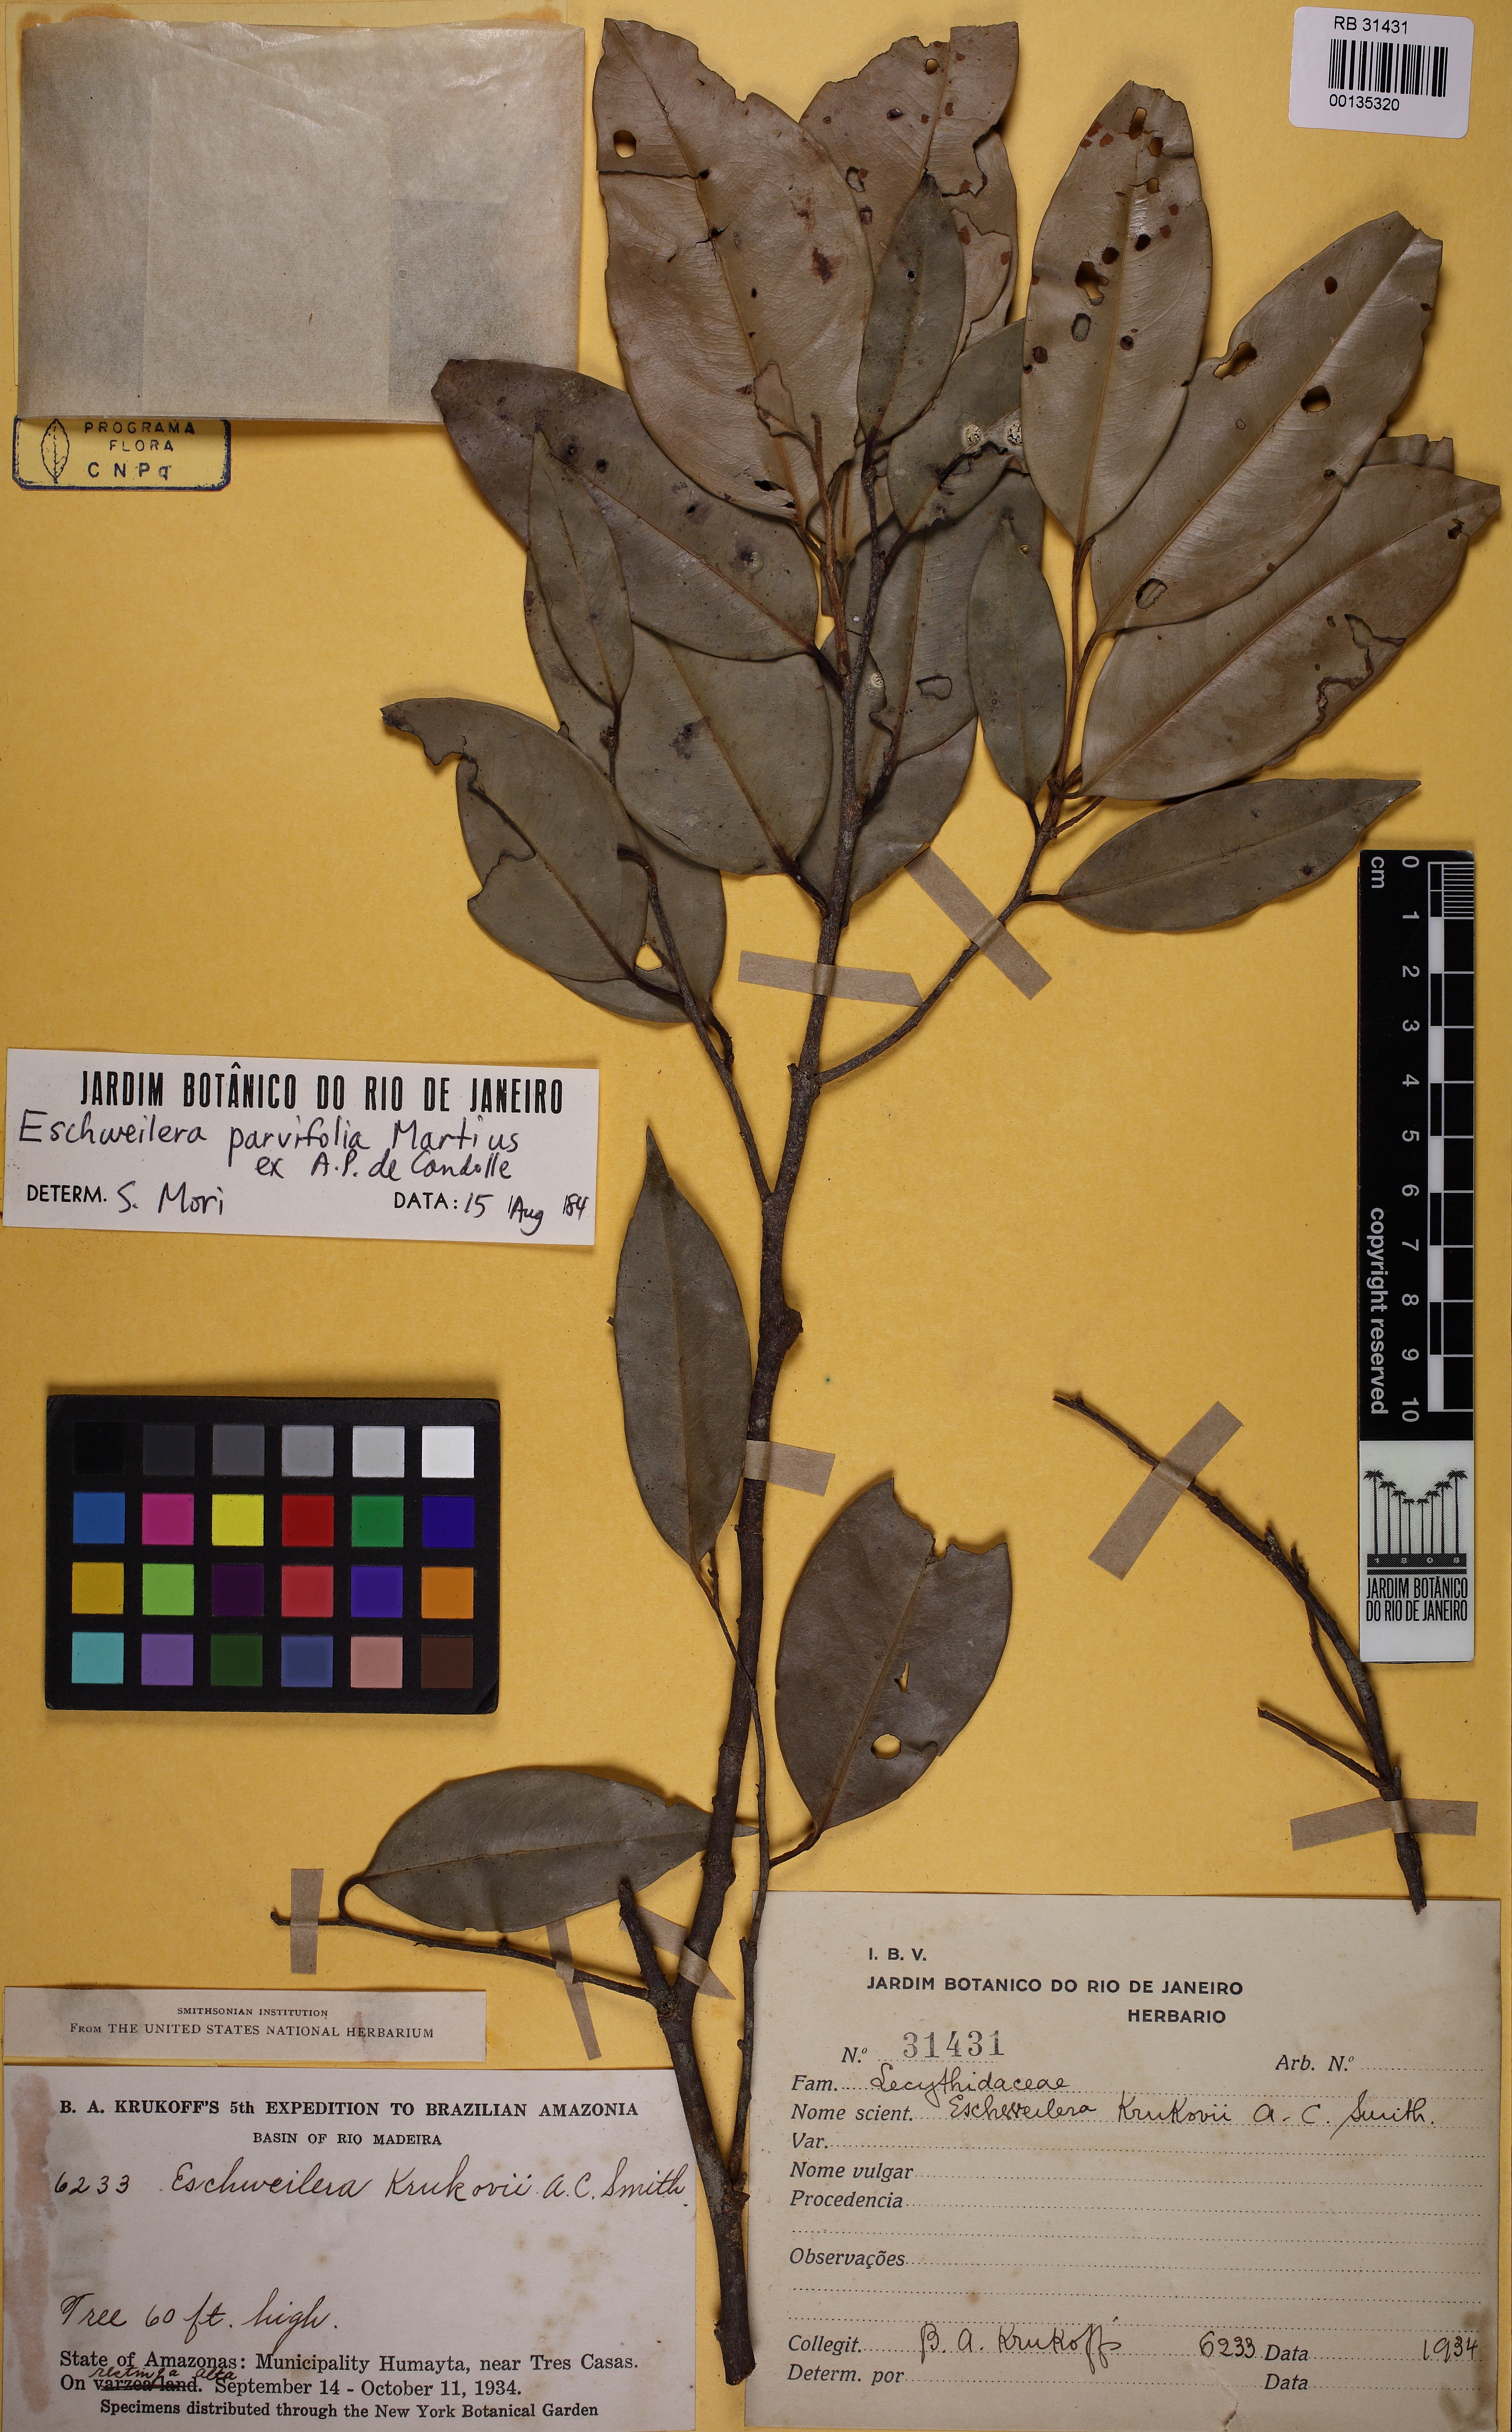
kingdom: Plantae
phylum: Tracheophyta
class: Magnoliopsida
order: Ericales
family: Lecythidaceae
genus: Eschweilera
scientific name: Eschweilera parviflora
